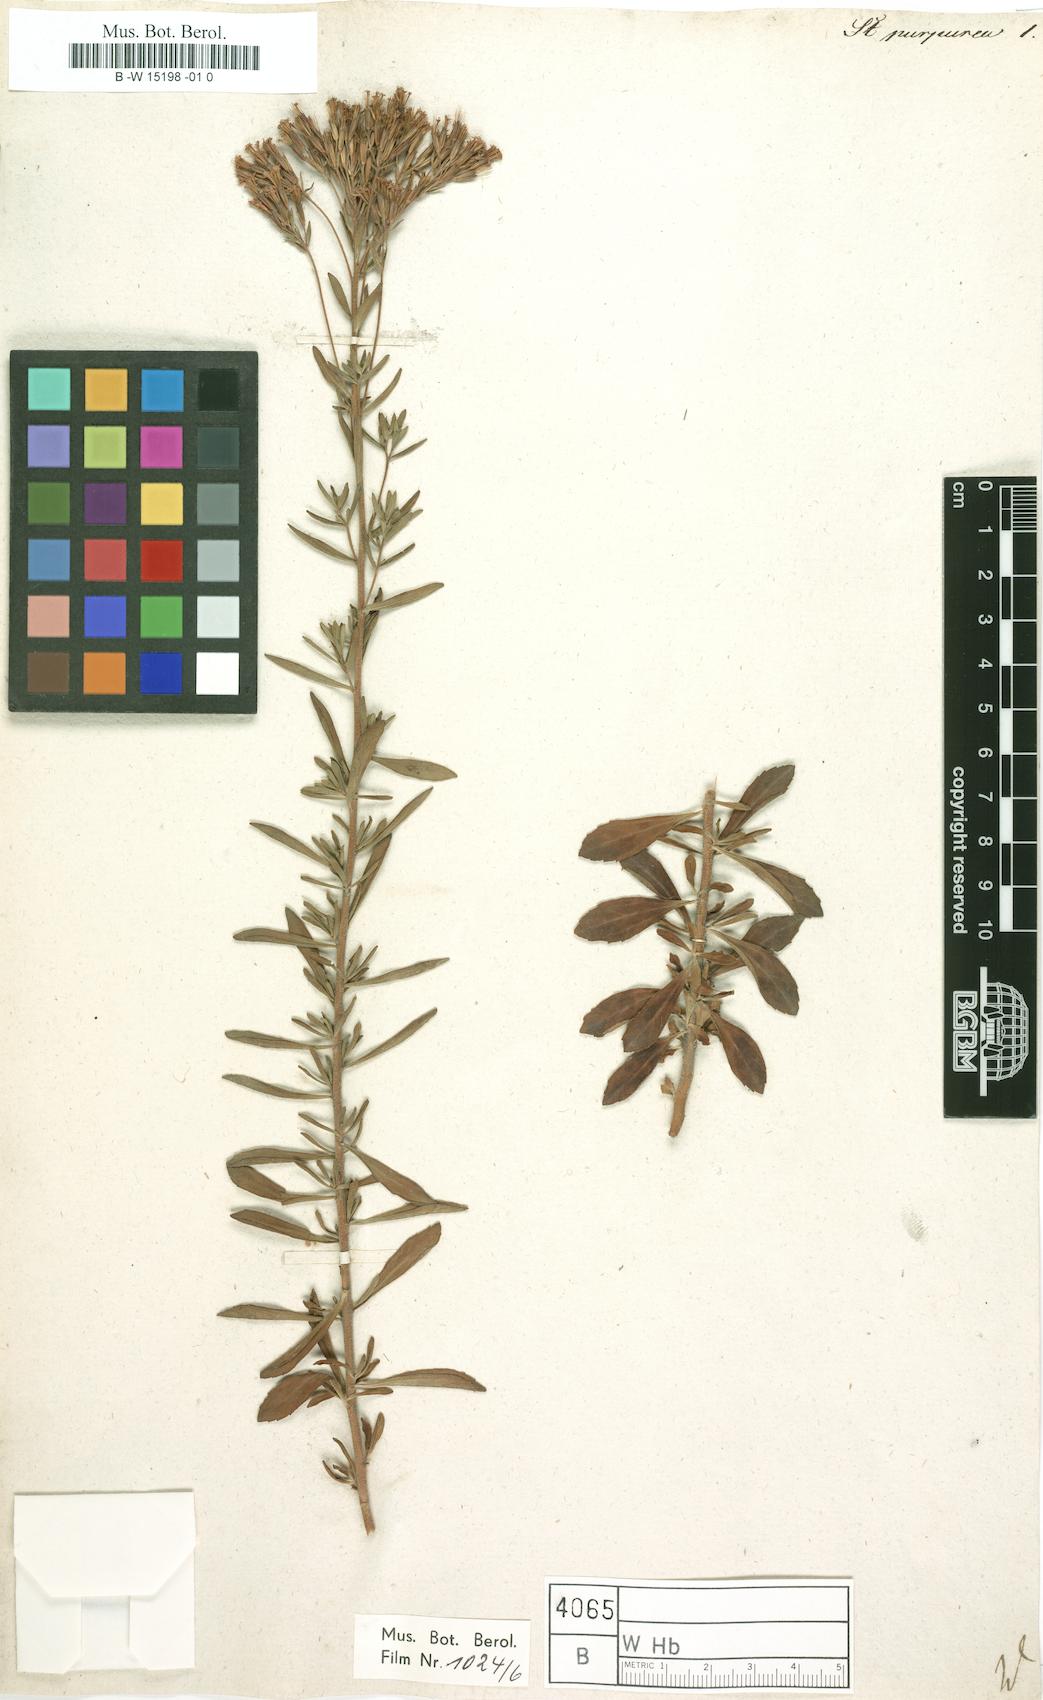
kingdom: Plantae
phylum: Tracheophyta
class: Magnoliopsida
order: Asterales
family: Asteraceae
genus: Stevia
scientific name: Stevia stricta
